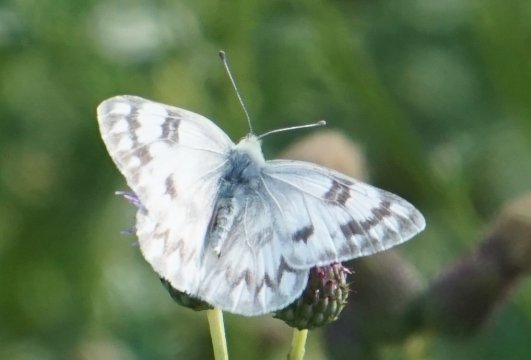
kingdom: Animalia
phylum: Arthropoda
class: Insecta
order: Lepidoptera
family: Pieridae
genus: Pontia
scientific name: Pontia occidentalis
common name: Western White
